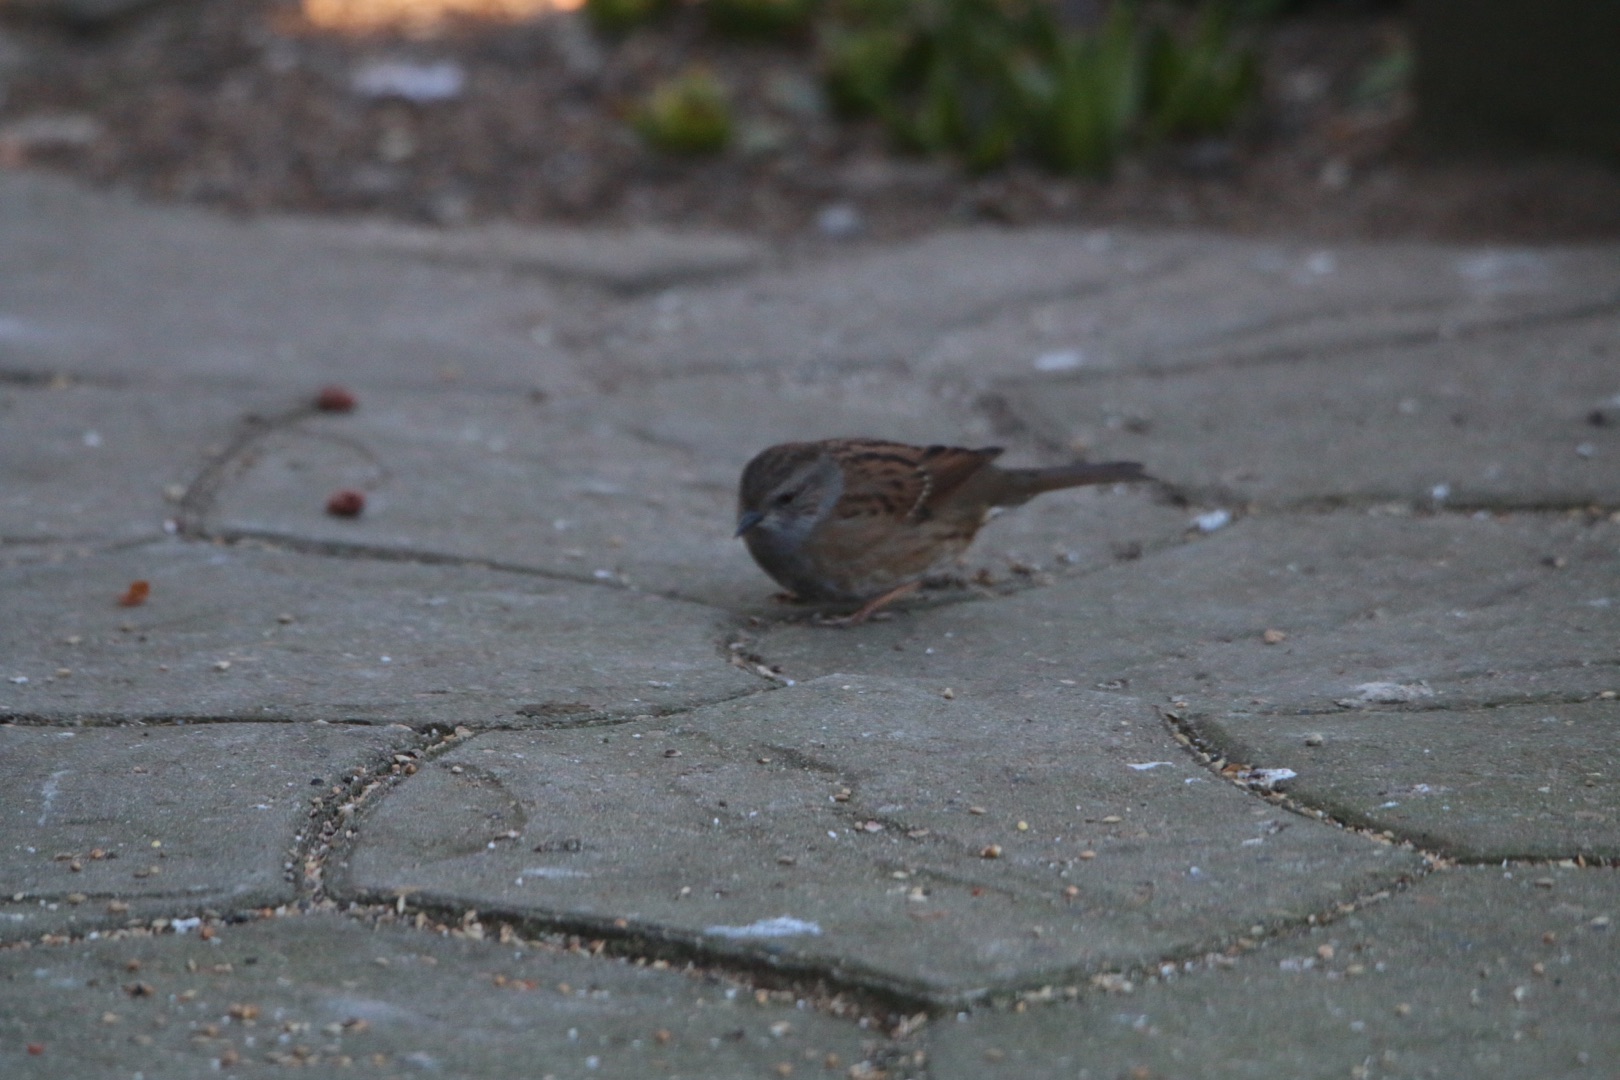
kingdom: Animalia
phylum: Chordata
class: Aves
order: Passeriformes
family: Prunellidae
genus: Prunella
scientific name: Prunella modularis
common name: Jernspurv
